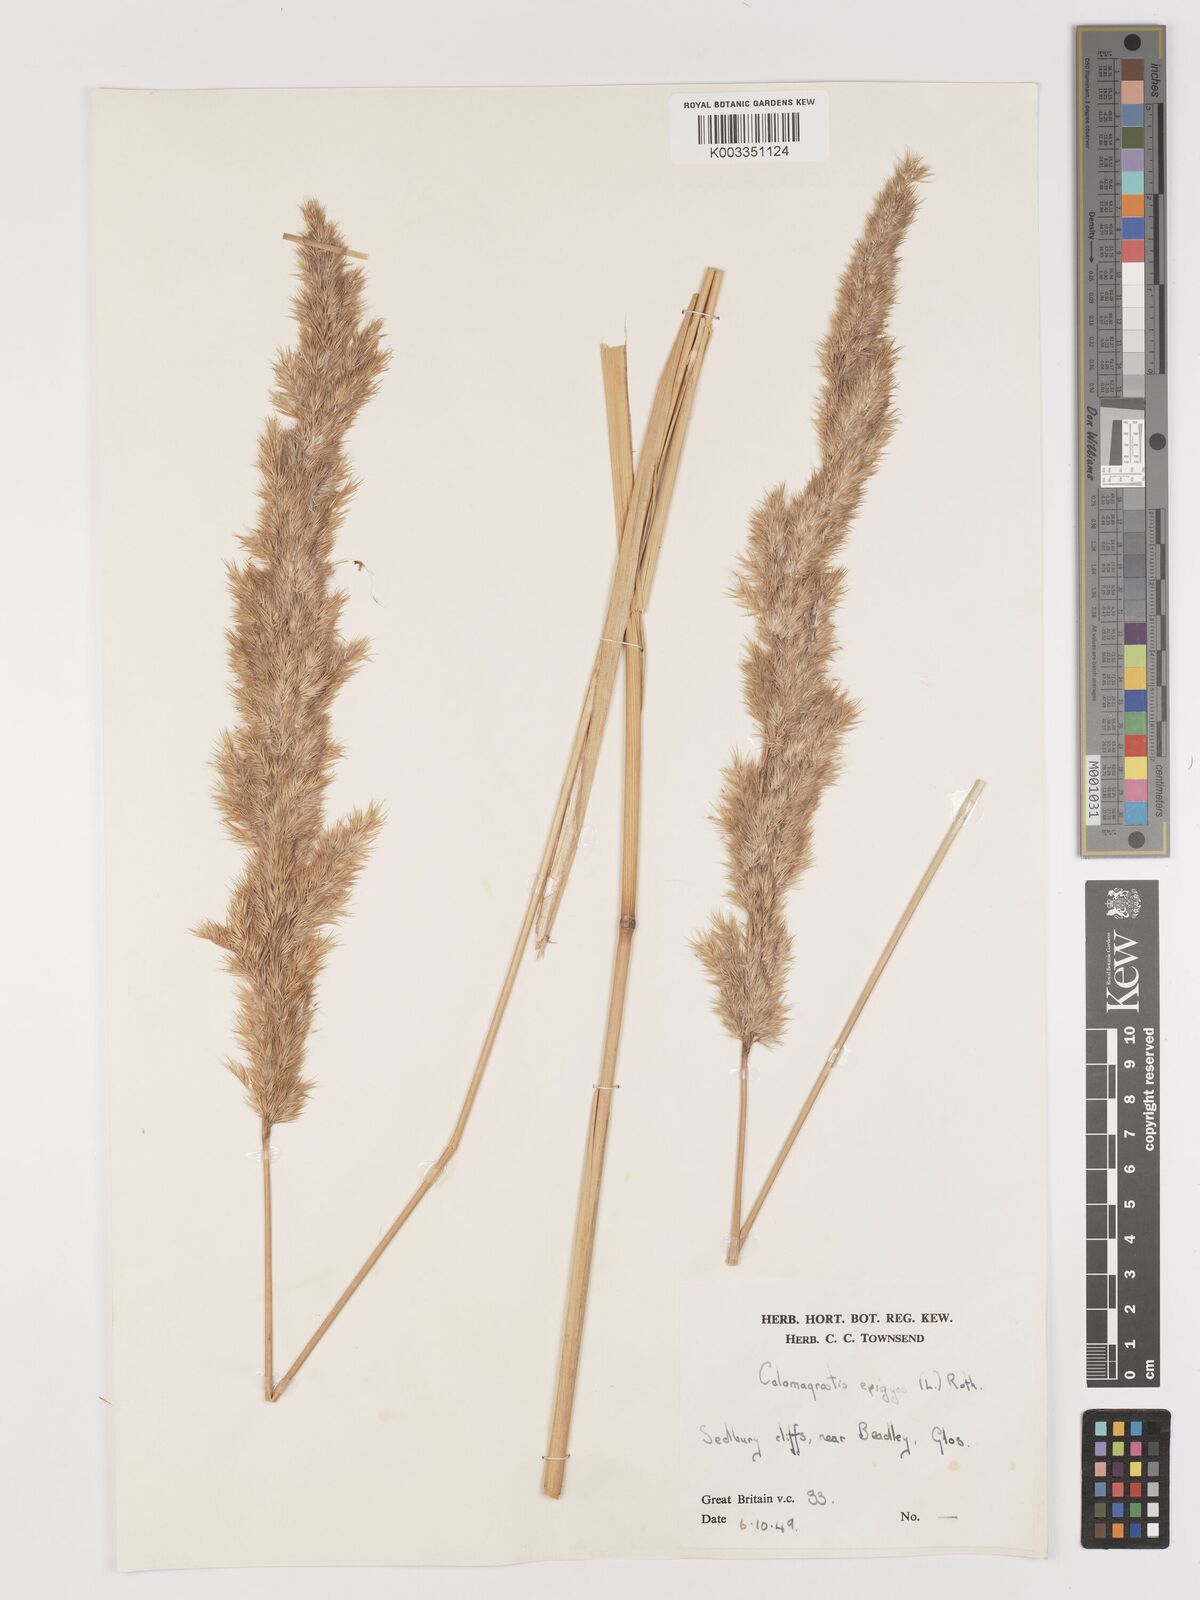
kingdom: Plantae
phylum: Tracheophyta
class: Liliopsida
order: Poales
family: Poaceae
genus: Calamagrostis
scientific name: Calamagrostis
